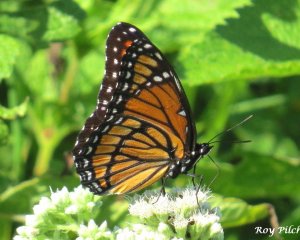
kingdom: Animalia
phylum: Arthropoda
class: Insecta
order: Lepidoptera
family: Nymphalidae
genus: Limenitis
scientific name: Limenitis archippus
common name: Viceroy
